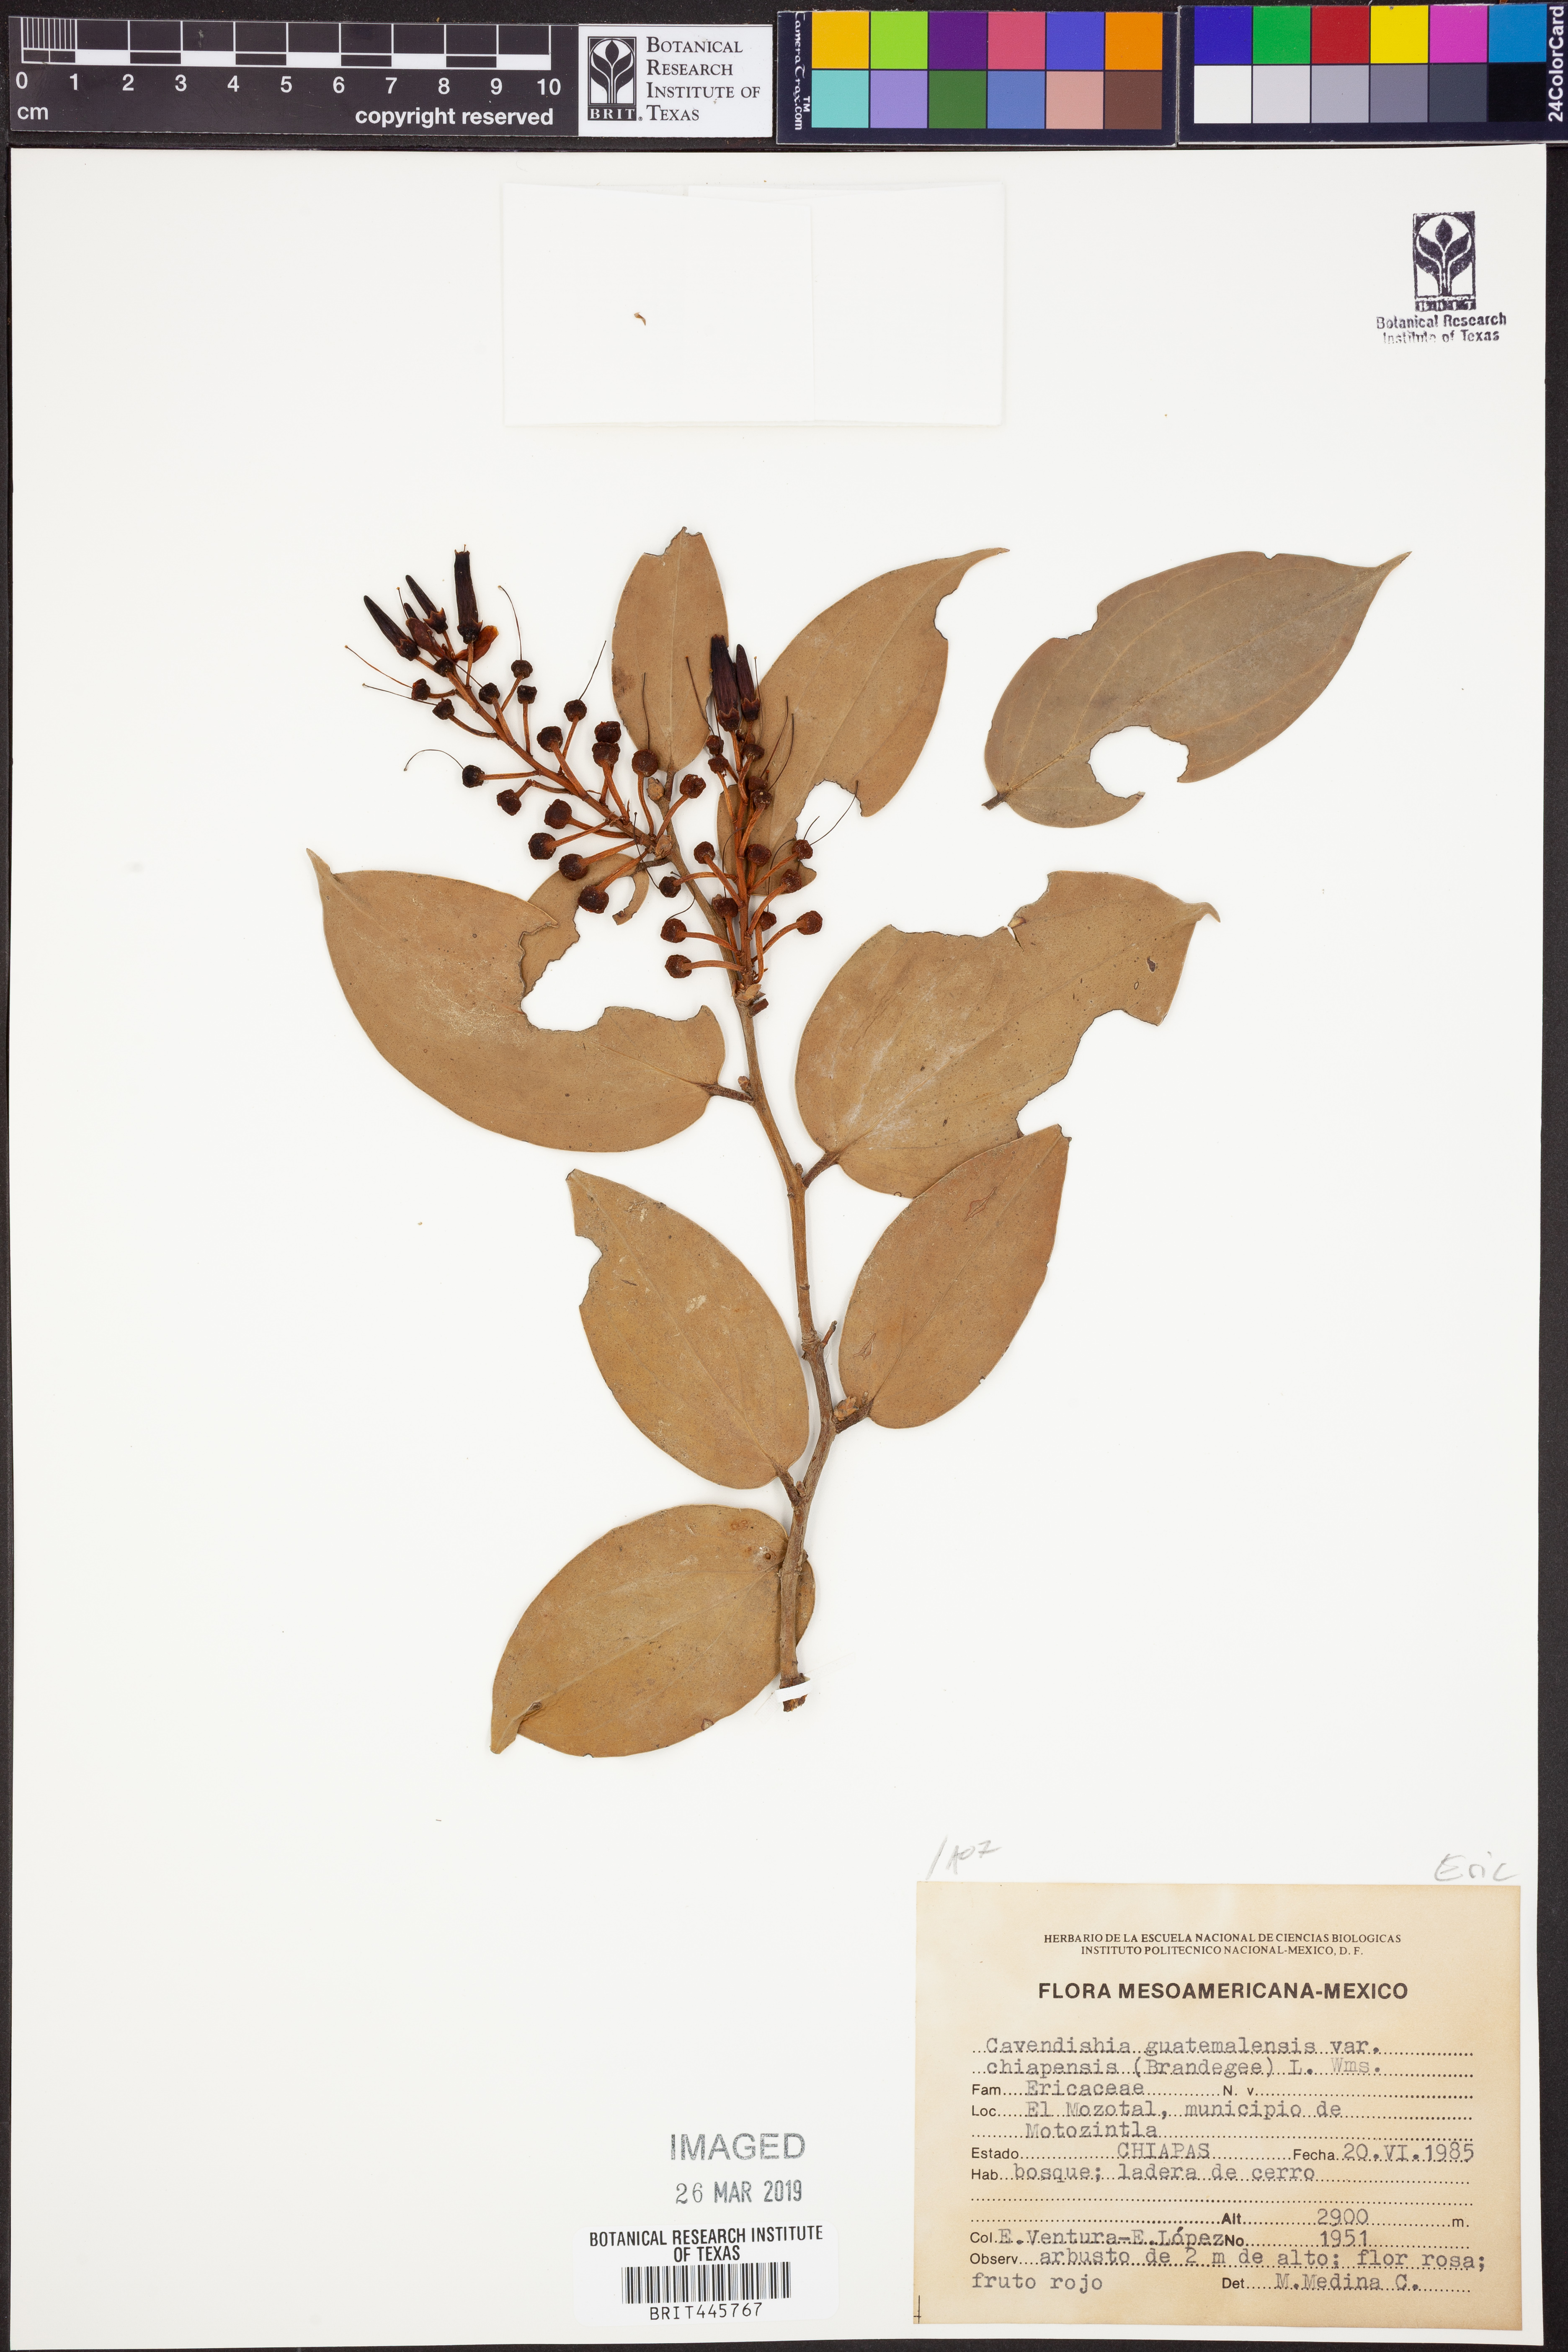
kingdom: Plantae
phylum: Tracheophyta
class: Magnoliopsida
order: Ericales
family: Ericaceae
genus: Cavendishia
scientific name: Cavendishia bracteata
